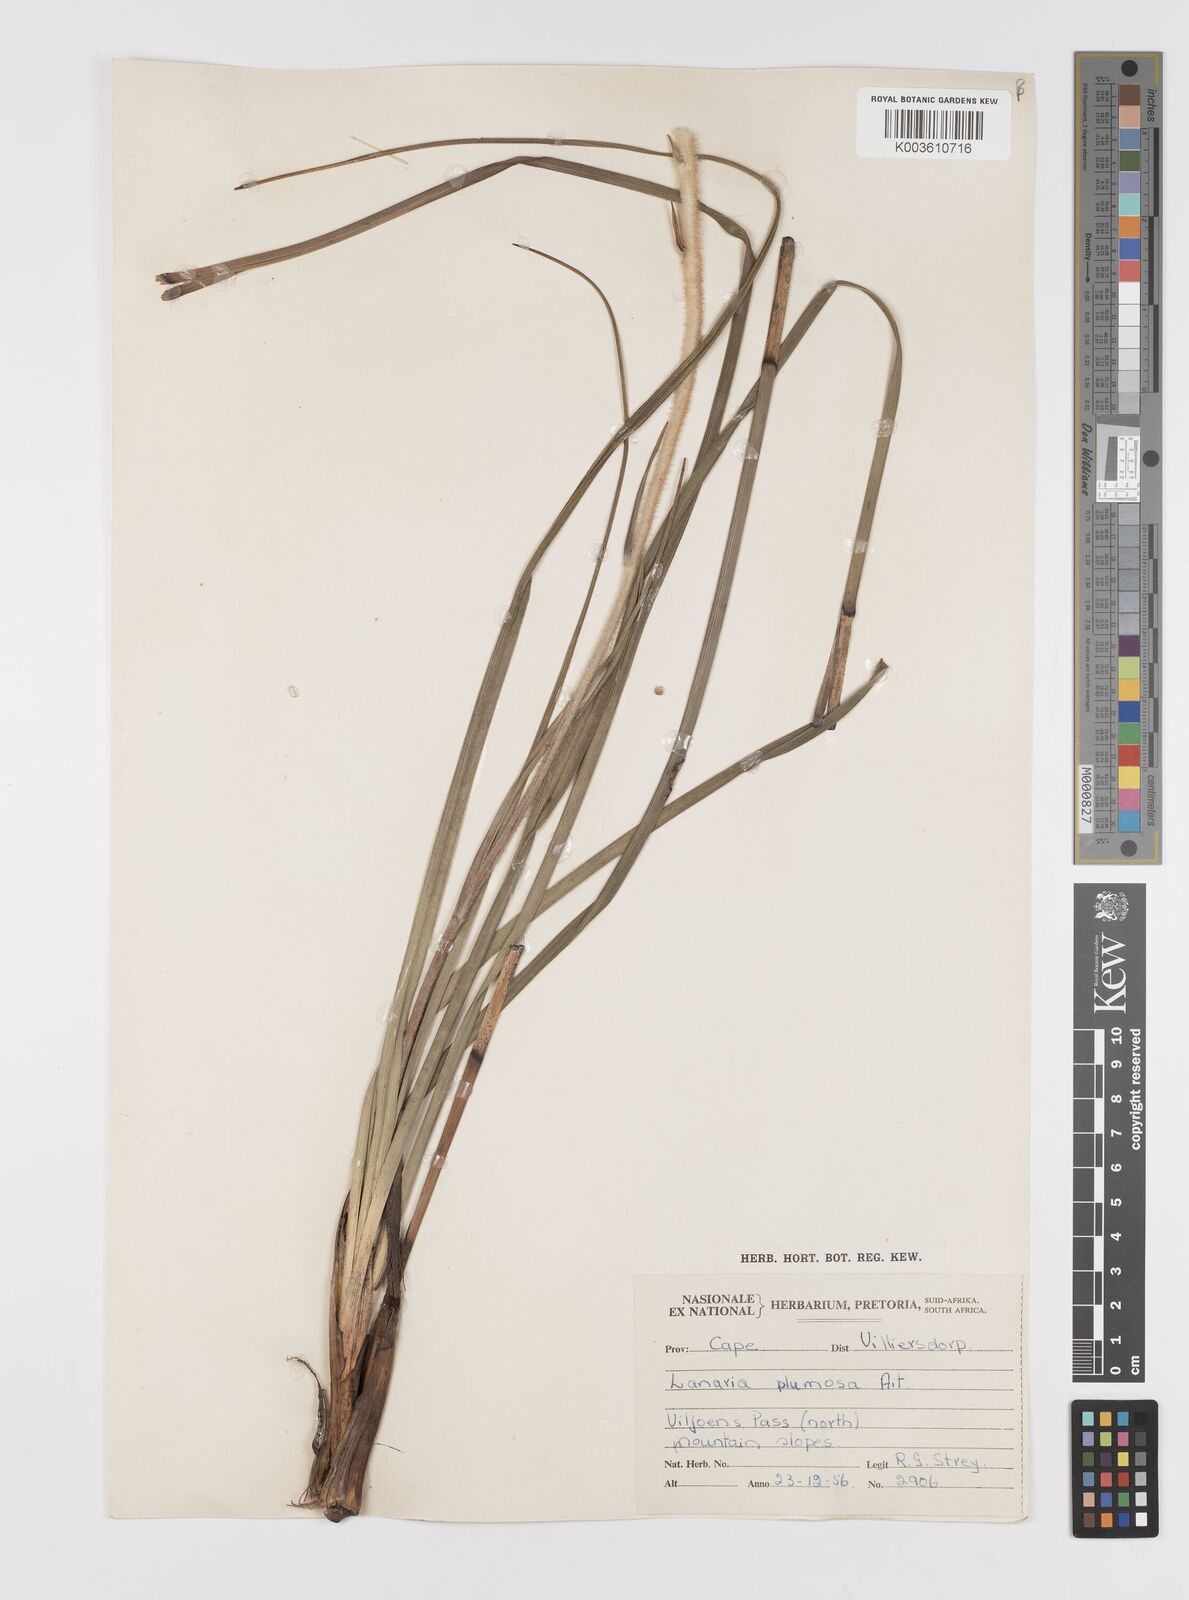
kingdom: Plantae
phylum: Tracheophyta
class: Liliopsida
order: Asparagales
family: Lanariaceae
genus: Lanaria
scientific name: Lanaria lanata
